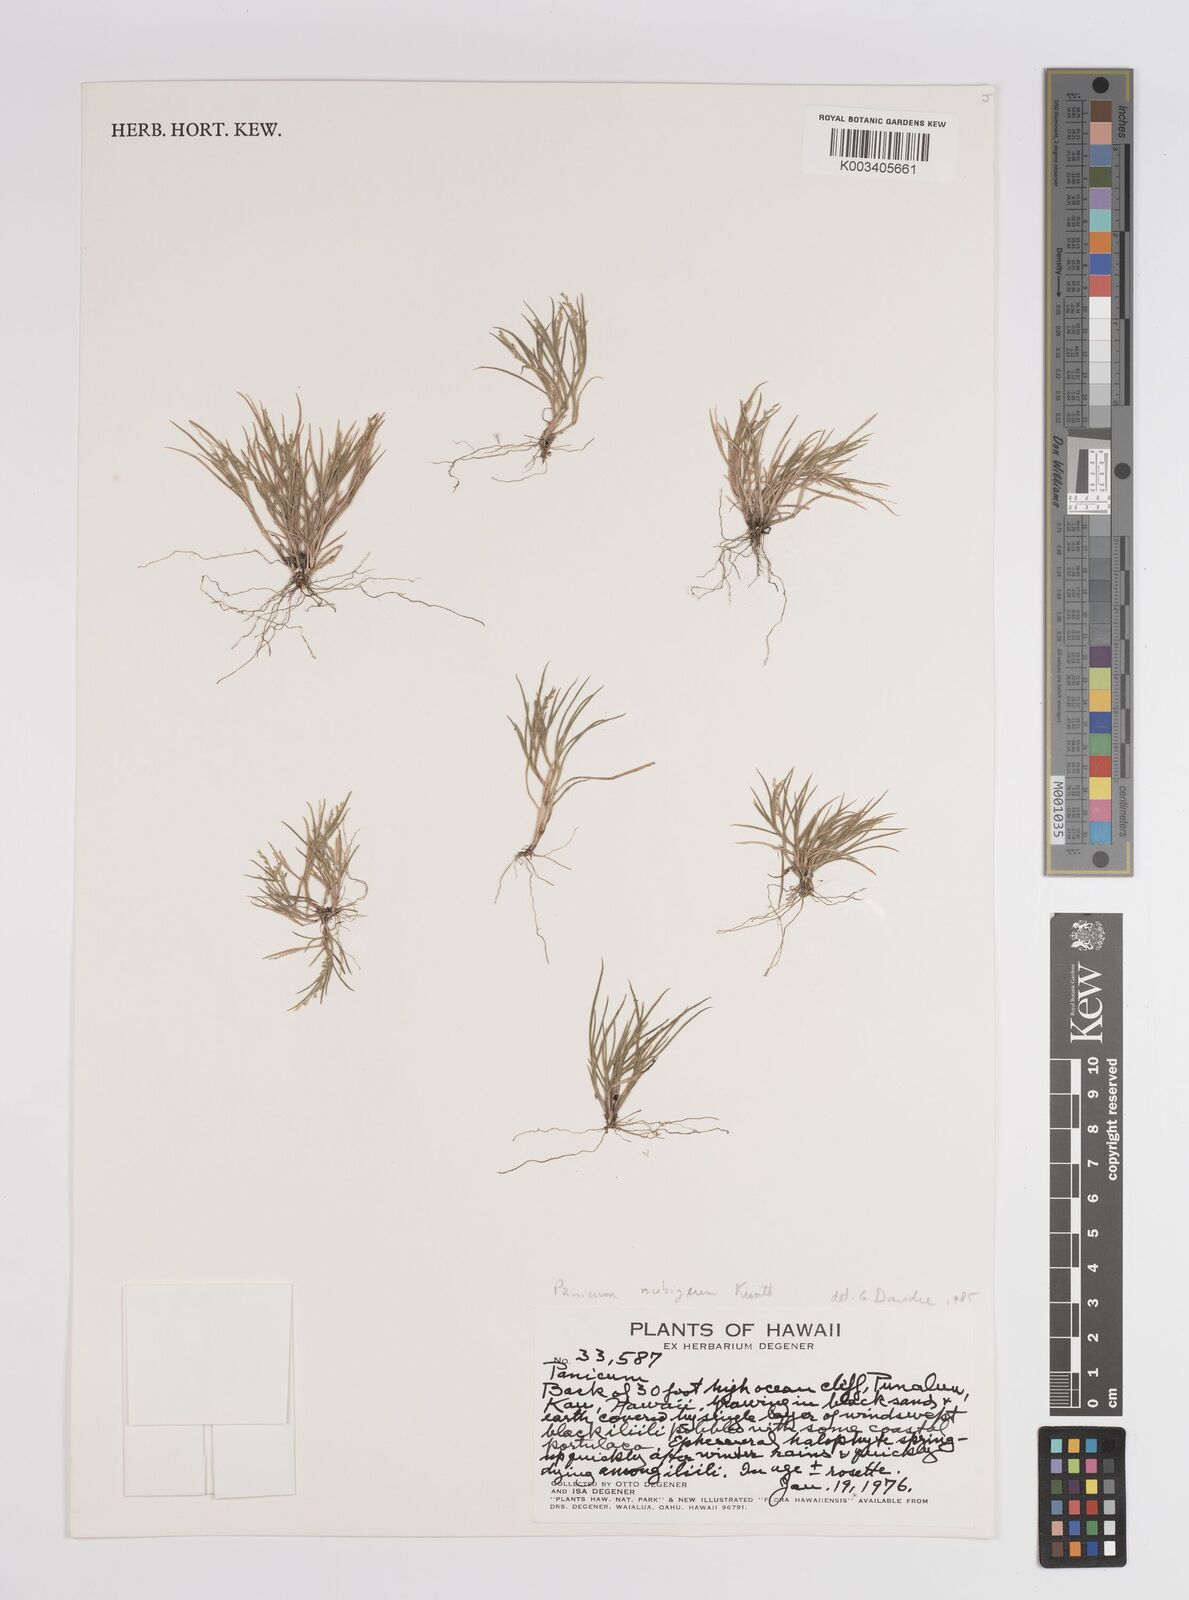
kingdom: Plantae
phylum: Tracheophyta
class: Liliopsida
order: Poales
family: Poaceae
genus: Panicum
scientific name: Panicum fauriei
